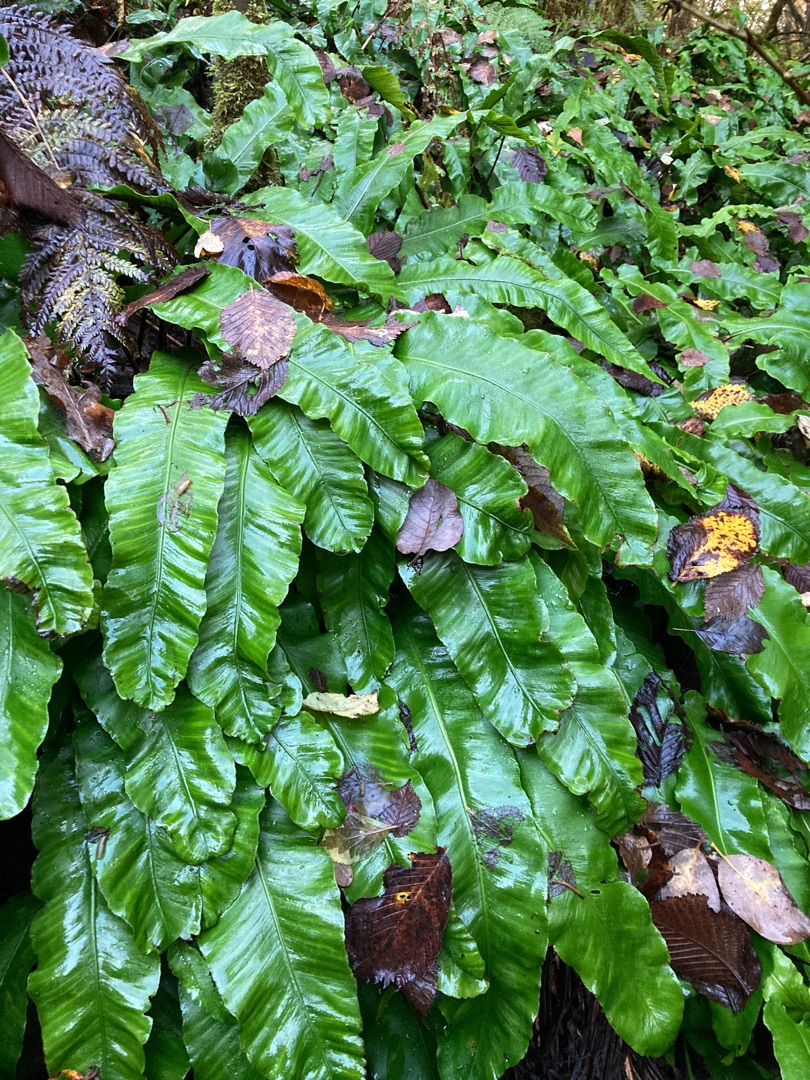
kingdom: Plantae
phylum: Tracheophyta
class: Polypodiopsida
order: Polypodiales
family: Aspleniaceae
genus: Asplenium
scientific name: Asplenium scolopendrium
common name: Hjortetunge
